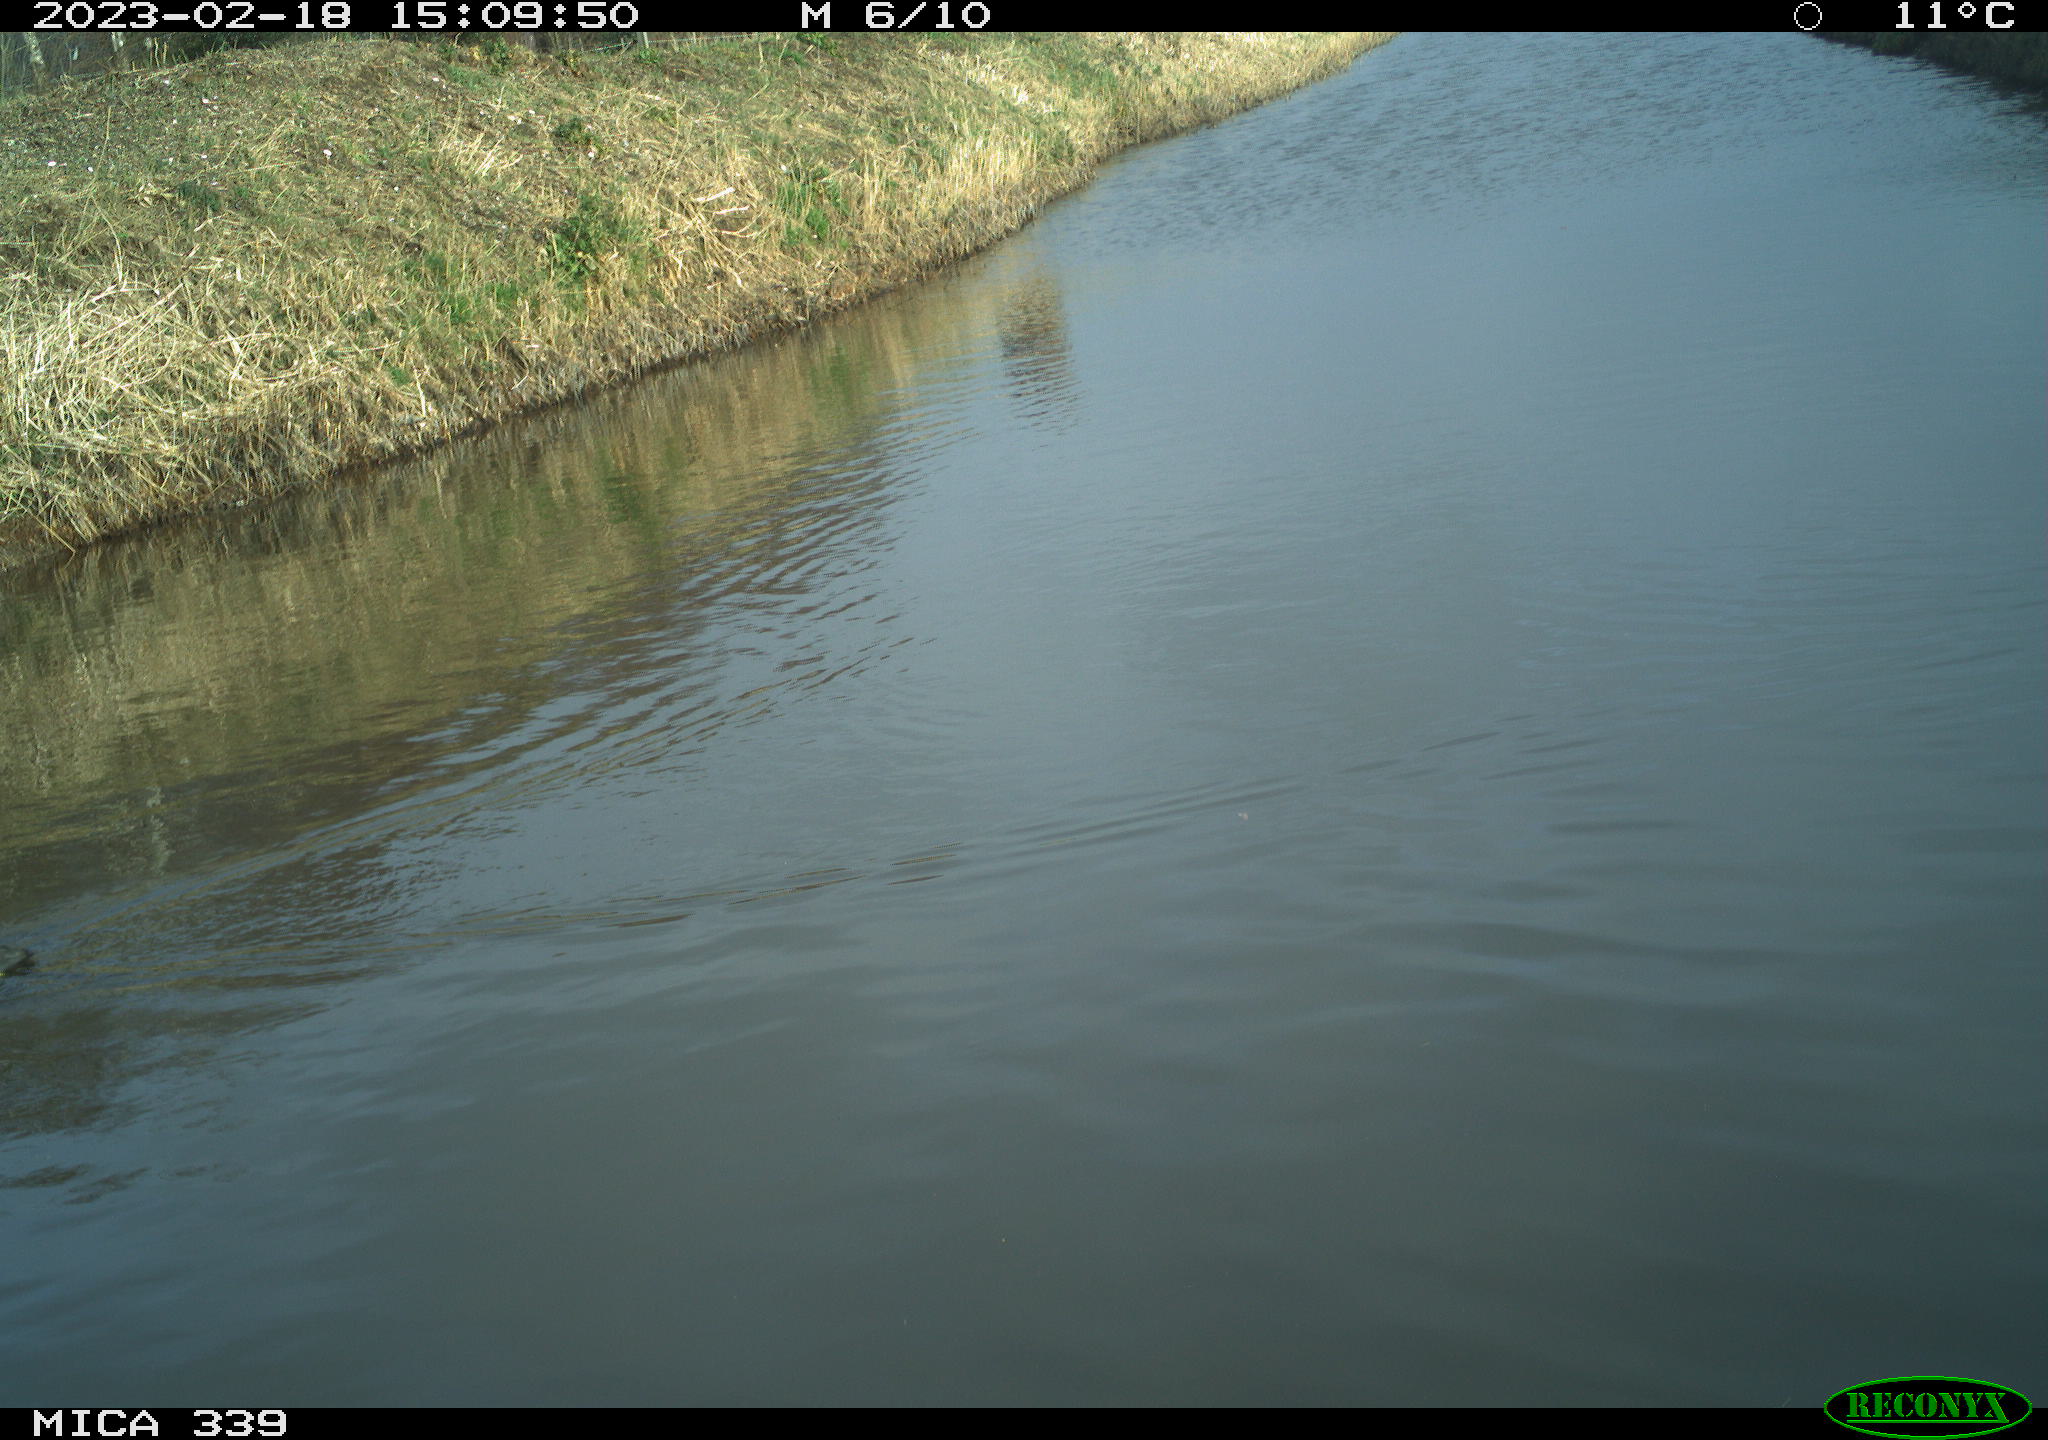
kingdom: Animalia
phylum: Chordata
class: Aves
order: Gruiformes
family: Rallidae
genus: Fulica
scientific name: Fulica atra
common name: Eurasian coot
